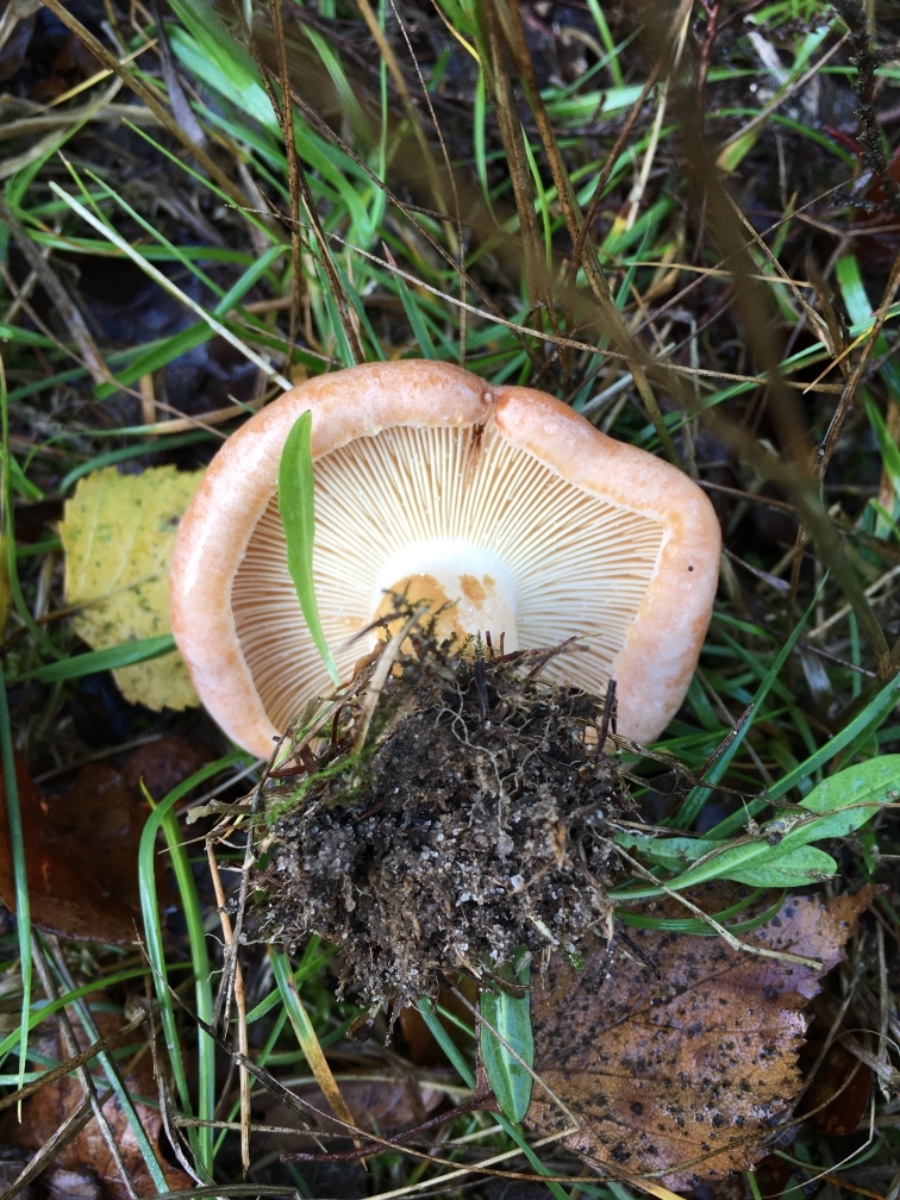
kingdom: Fungi
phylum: Basidiomycota
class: Agaricomycetes
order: Russulales
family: Russulaceae
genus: Lactarius
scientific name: Lactarius chrysorrheus
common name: svovlmælket mælkehat
